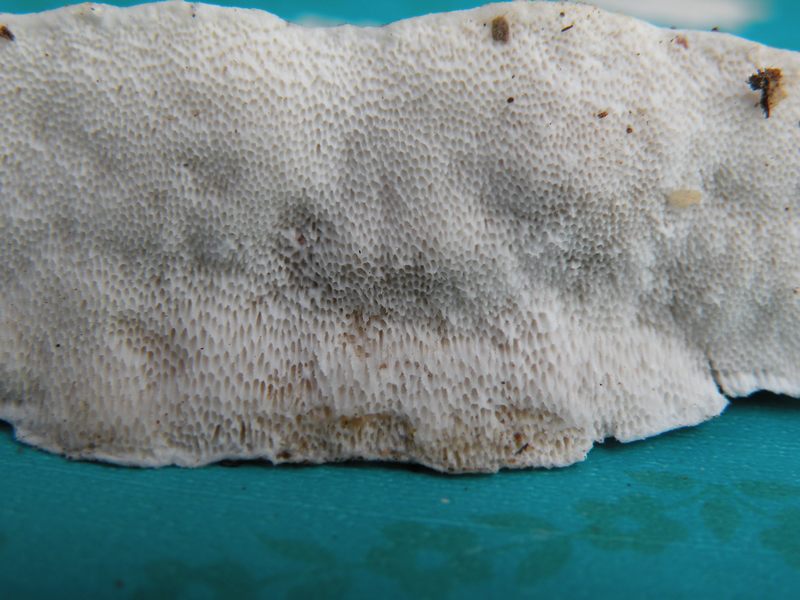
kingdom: Fungi
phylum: Basidiomycota
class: Agaricomycetes
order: Polyporales
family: Fomitopsidaceae
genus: Neoantrodia
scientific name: Neoantrodia serialis
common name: række-sejporesvamp
